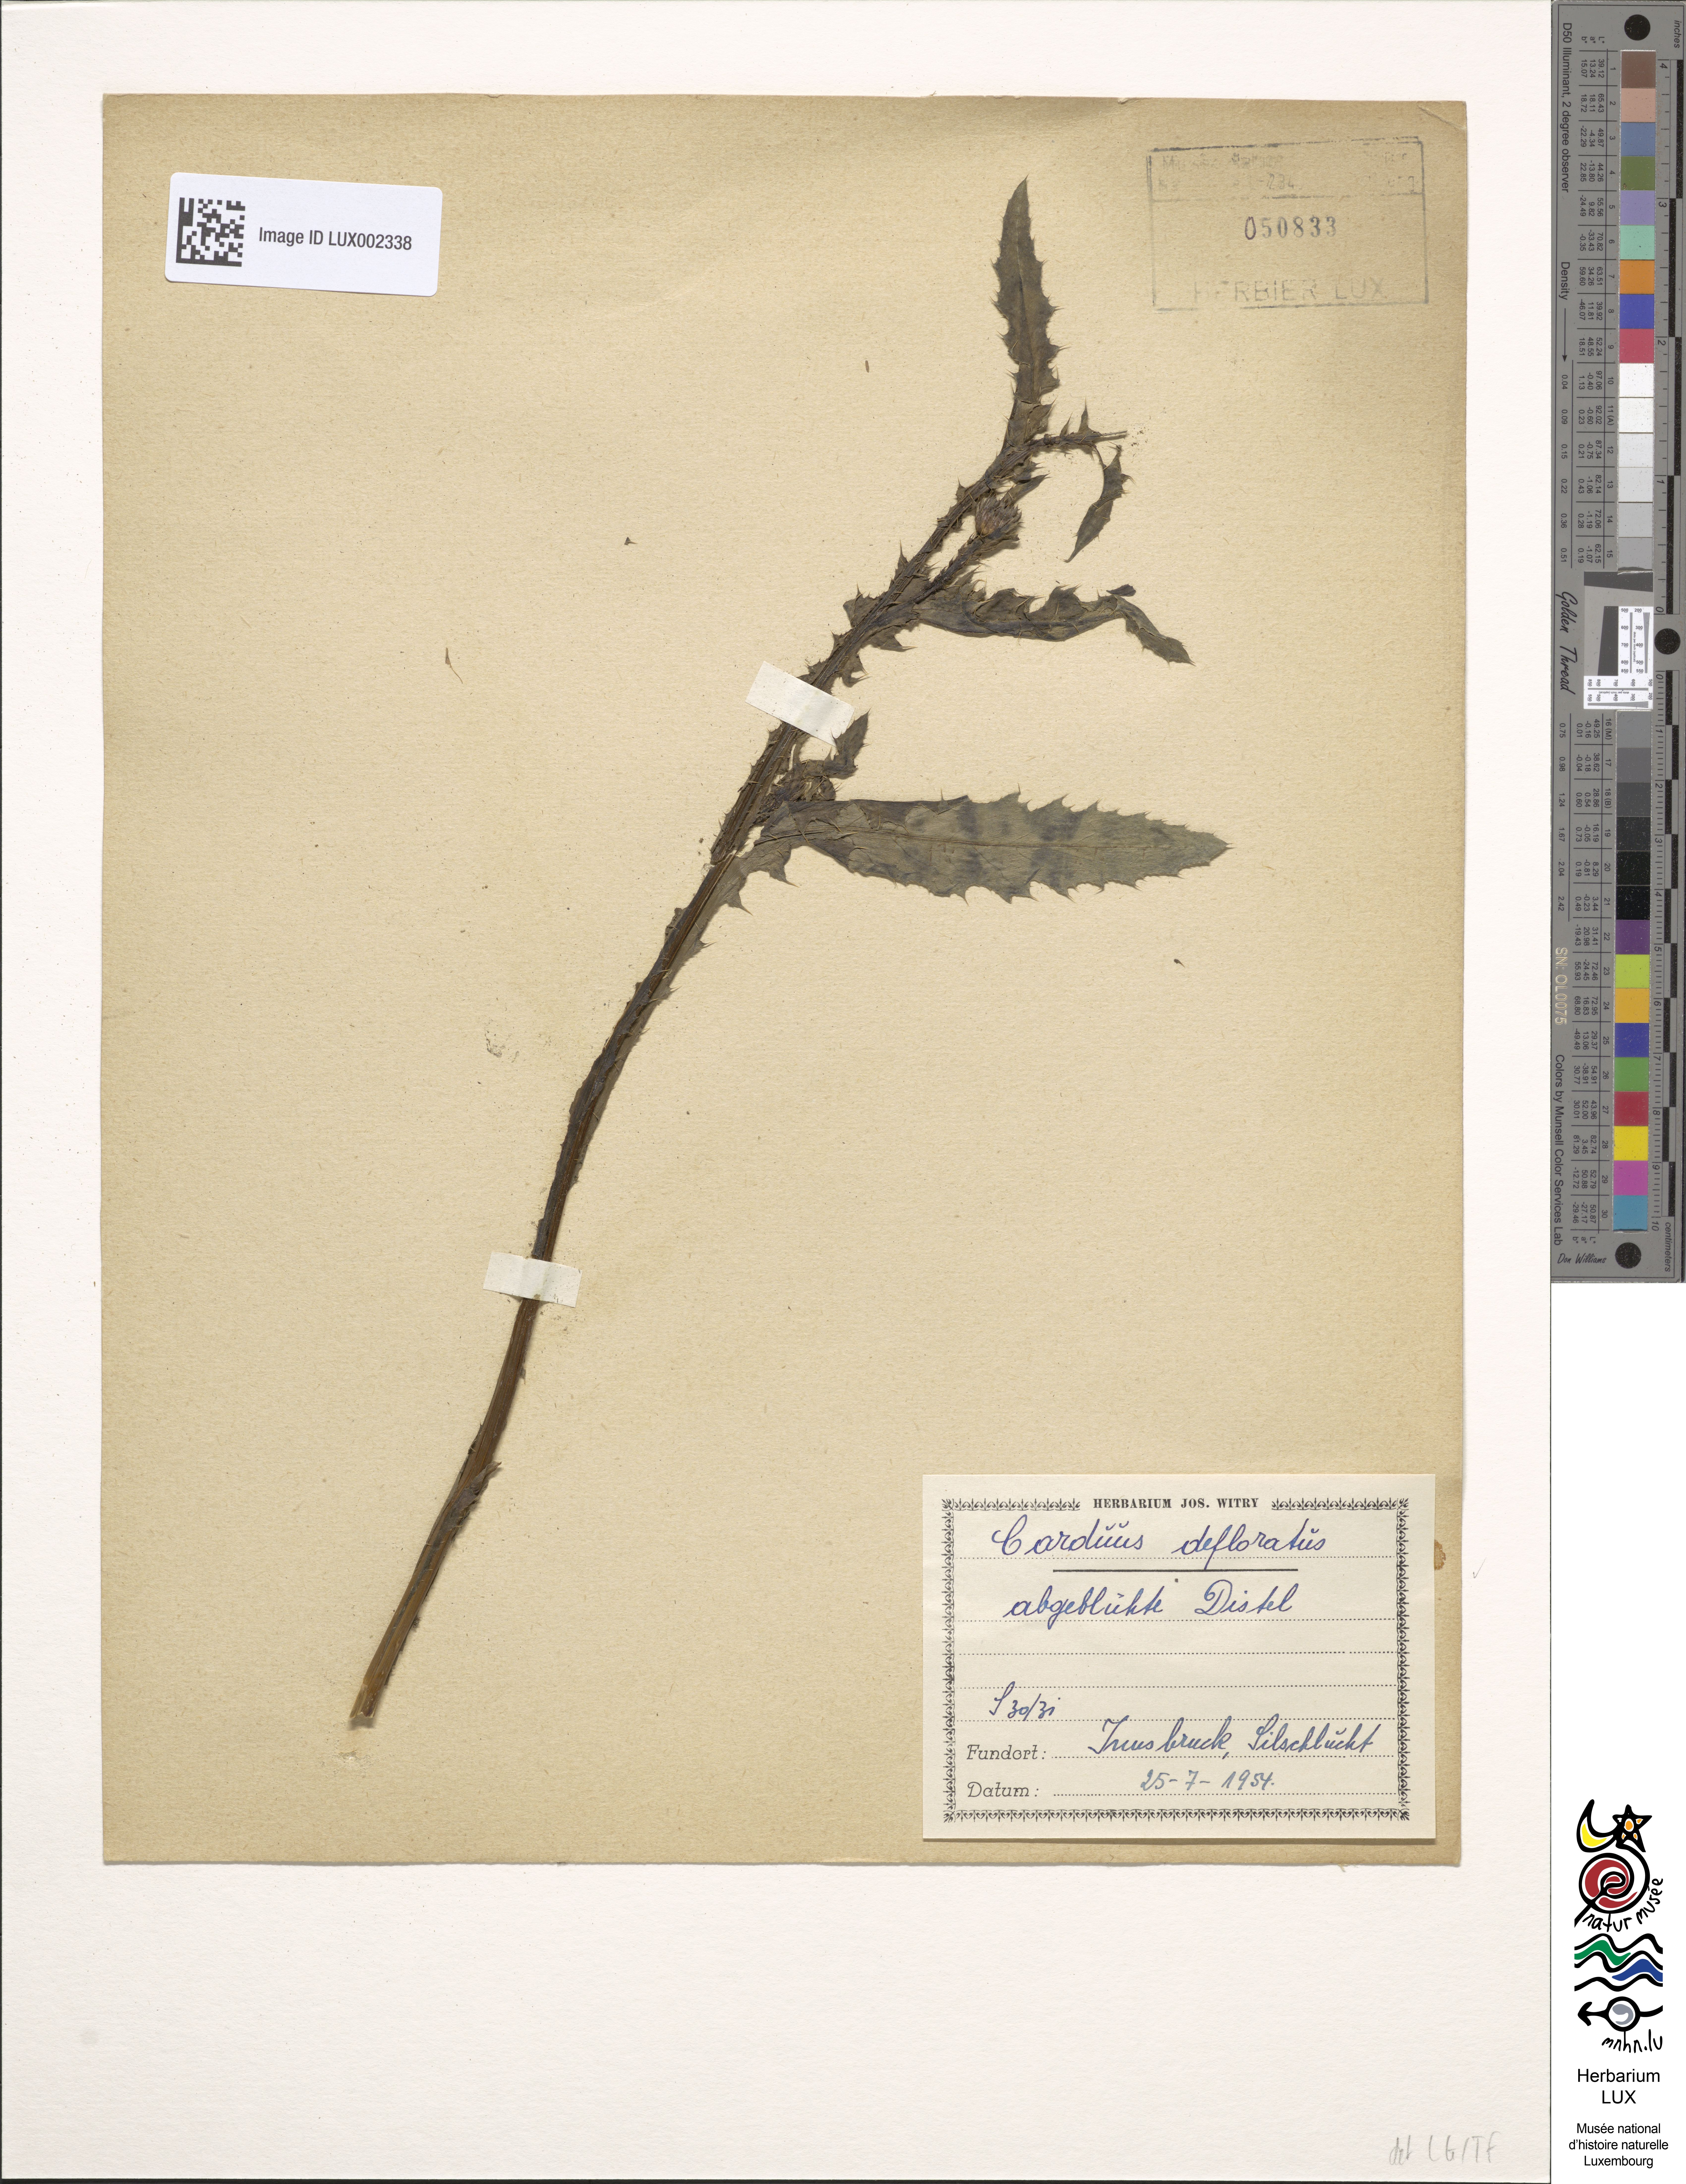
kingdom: Plantae
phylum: Tracheophyta
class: Magnoliopsida
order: Asterales
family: Asteraceae
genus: Carduus
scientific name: Carduus defloratus
